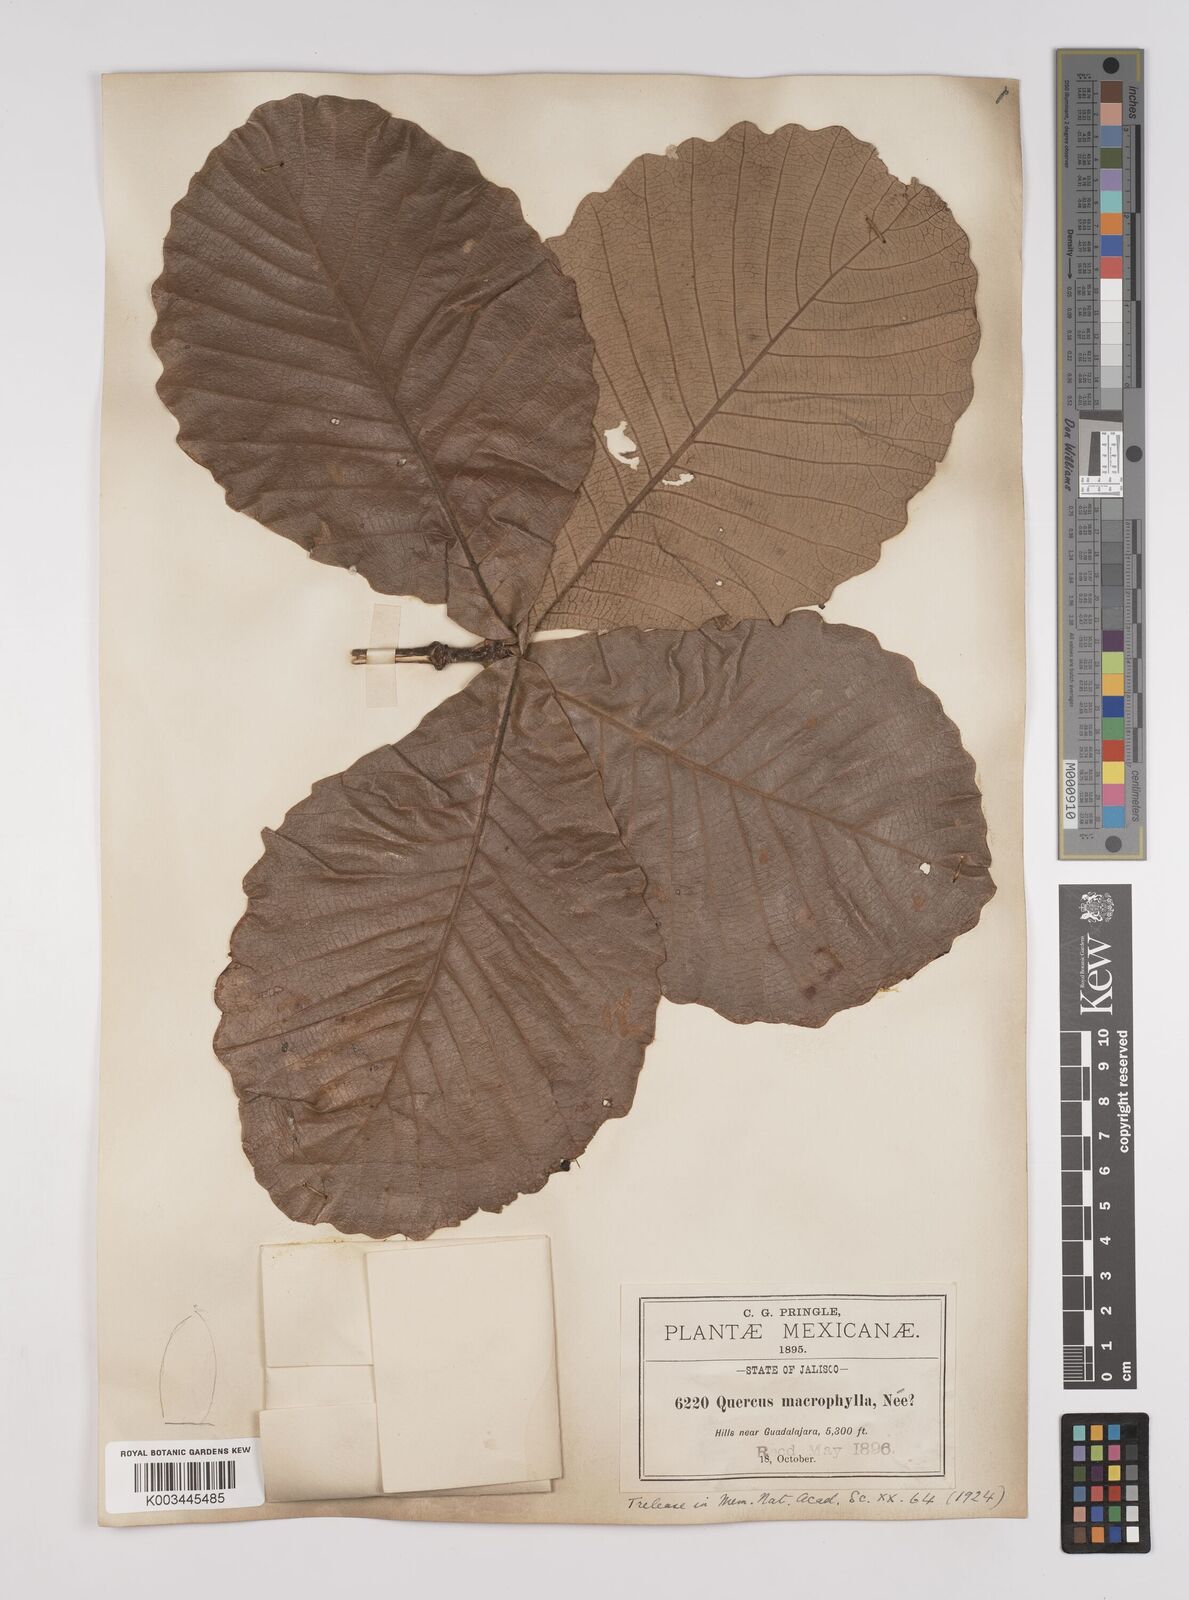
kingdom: Plantae
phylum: Tracheophyta
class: Magnoliopsida
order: Fagales
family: Fagaceae
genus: Quercus
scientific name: Quercus
